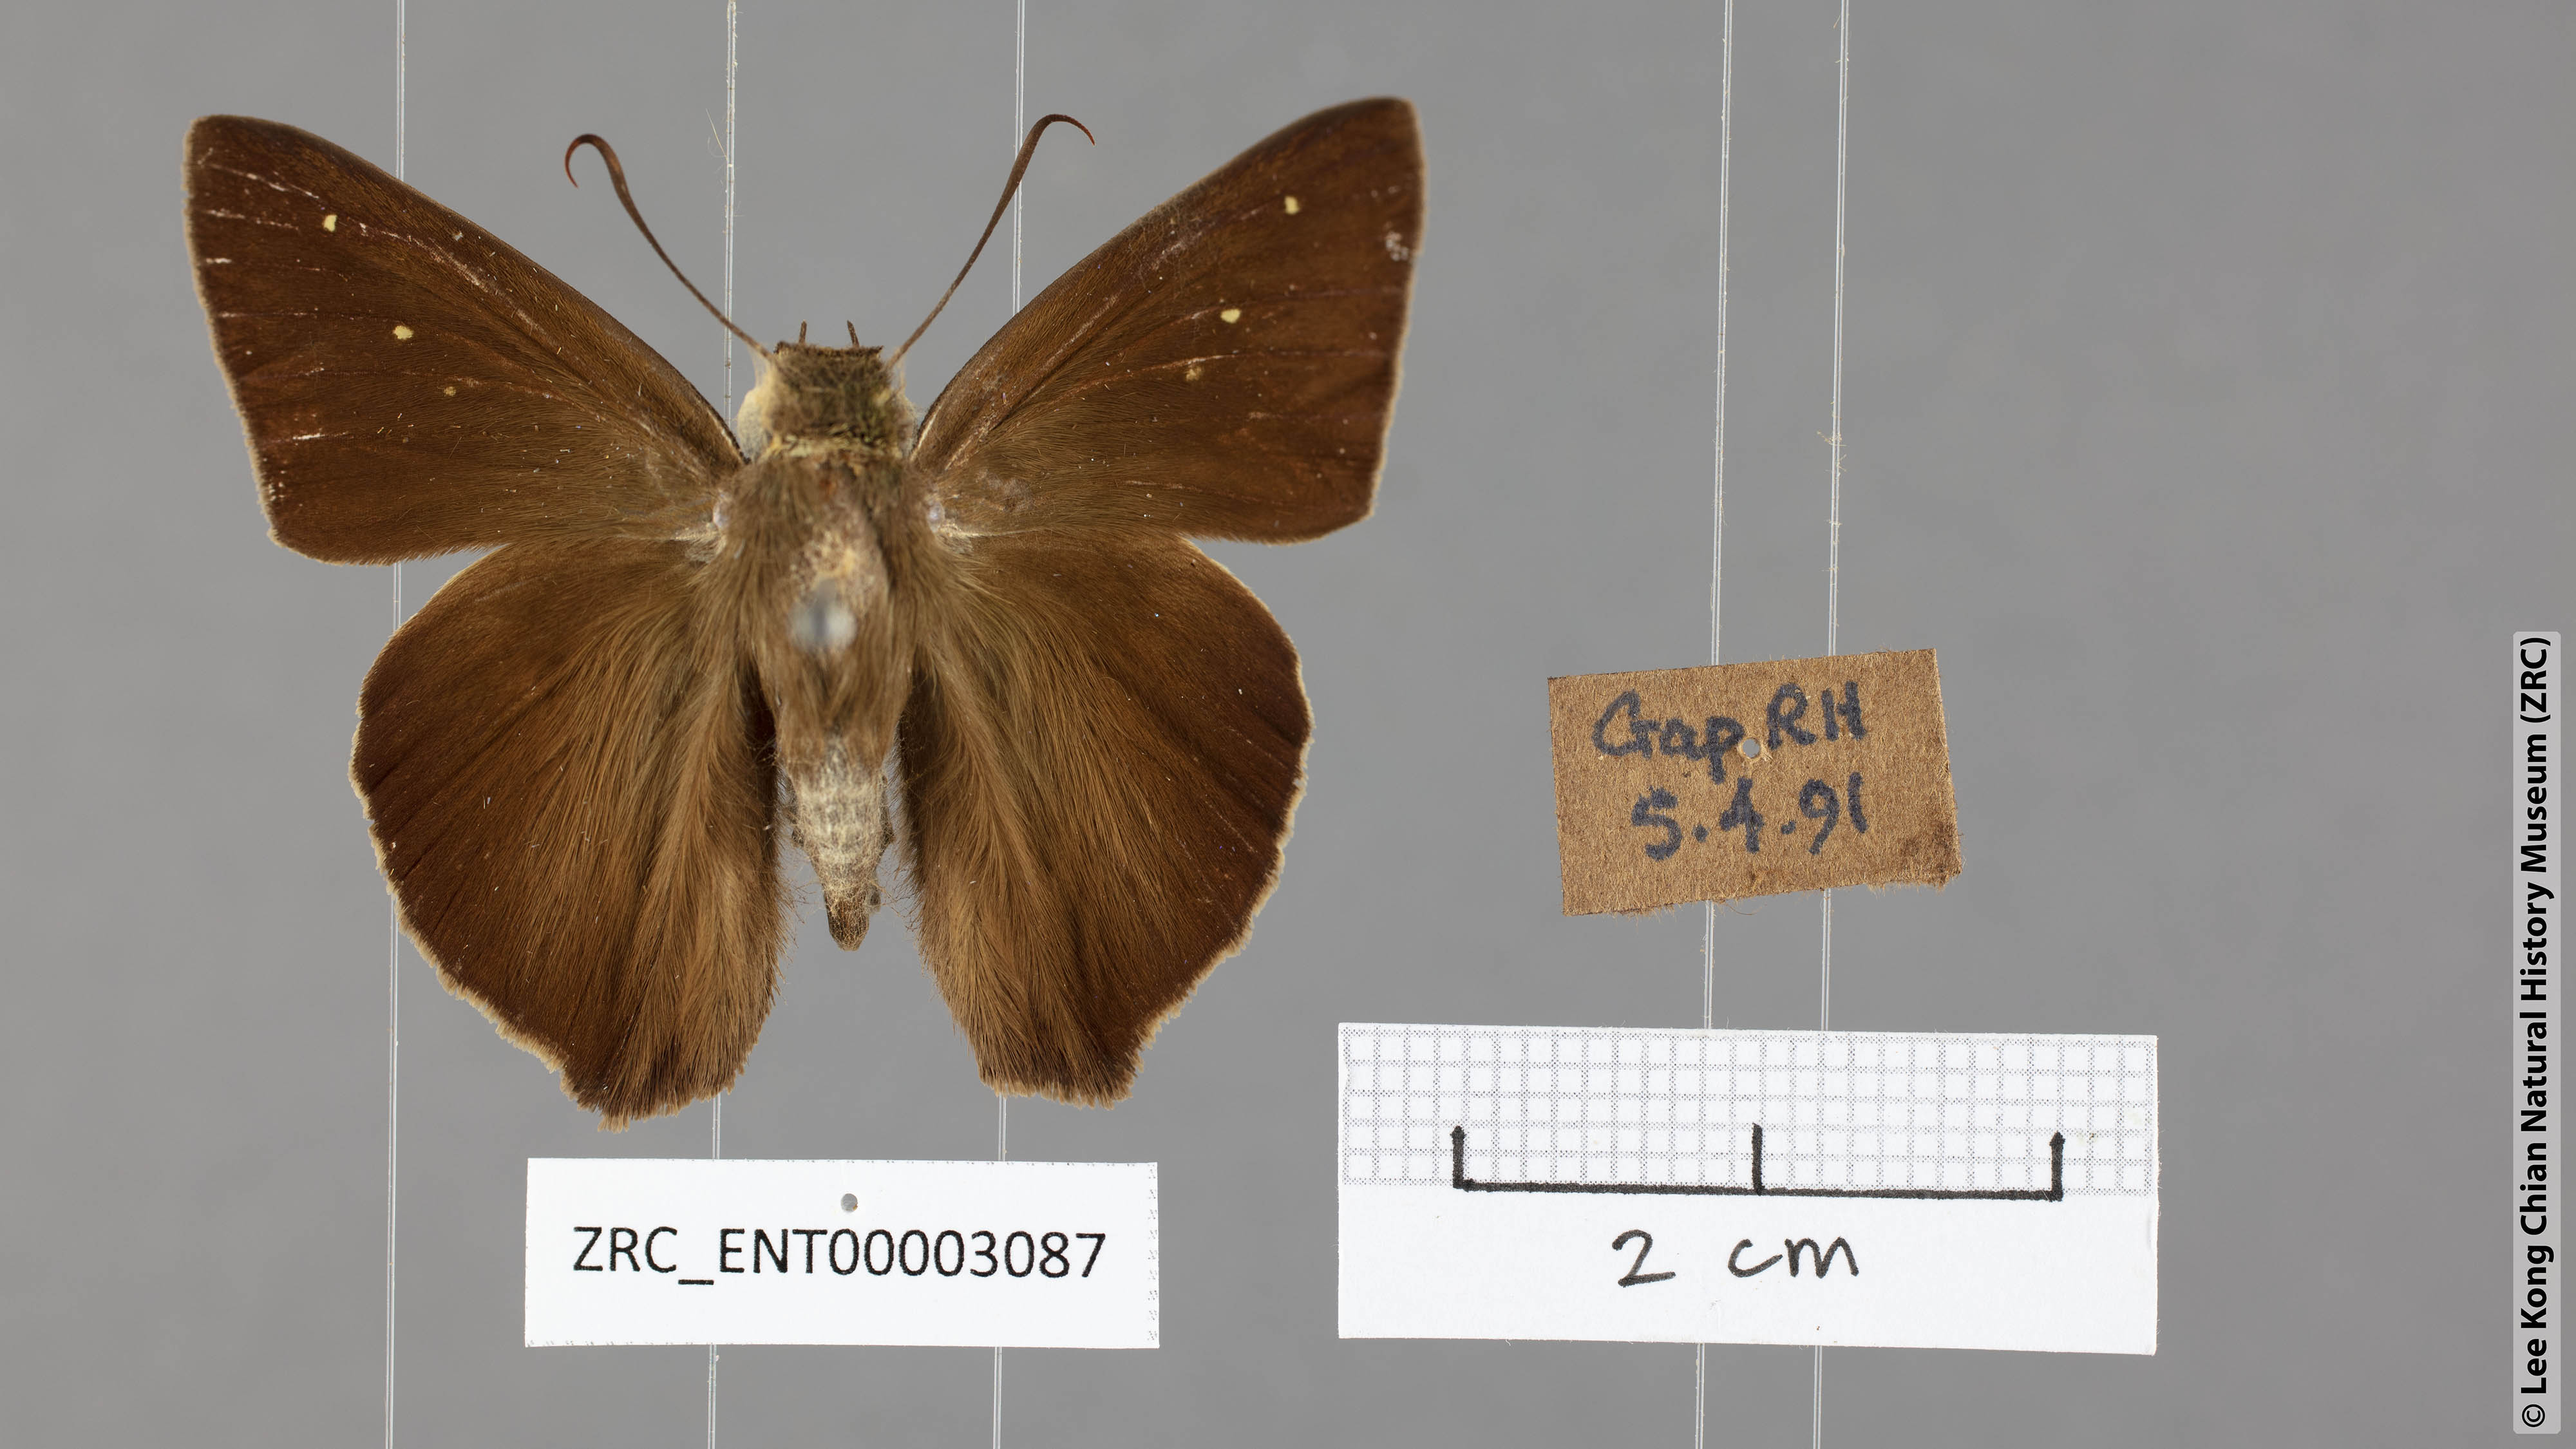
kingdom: Animalia
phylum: Arthropoda
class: Insecta
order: Lepidoptera
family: Hesperiidae
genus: Hasora
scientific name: Hasora vitta
